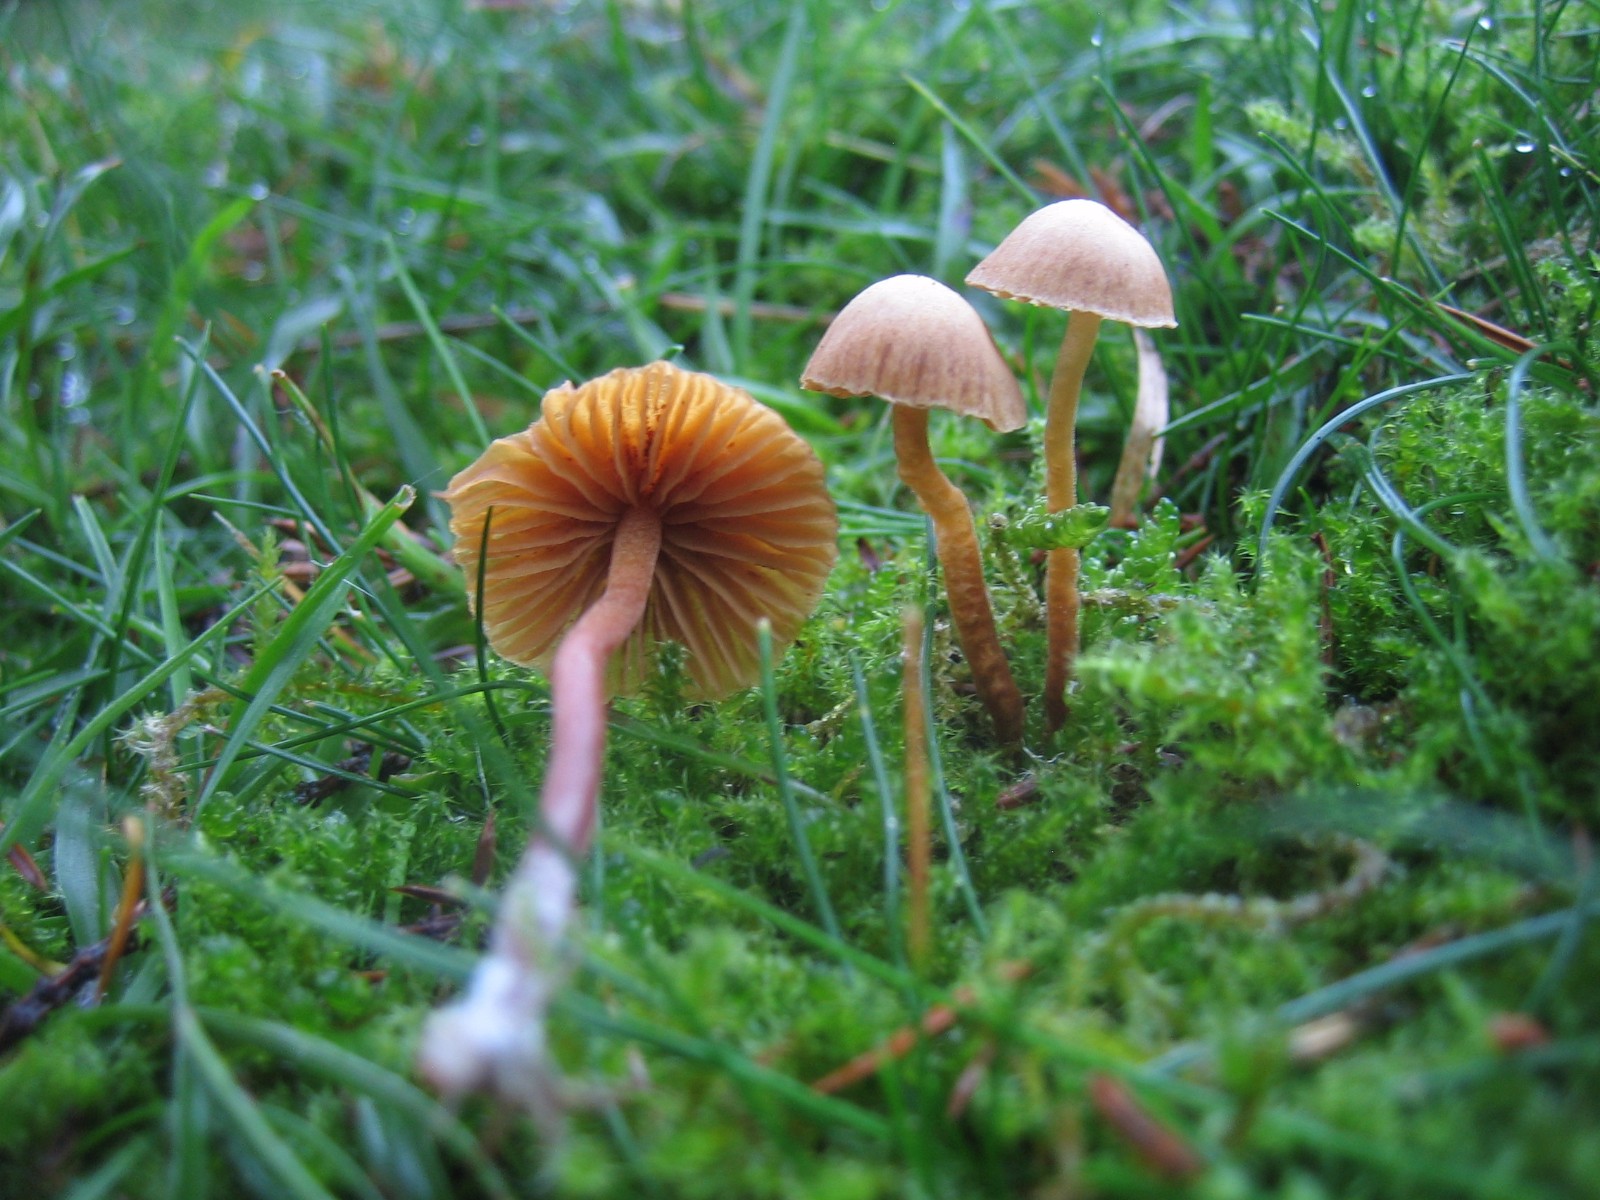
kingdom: Fungi
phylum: Basidiomycota
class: Agaricomycetes
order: Agaricales
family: Hymenogastraceae
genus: Galerina
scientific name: Galerina
